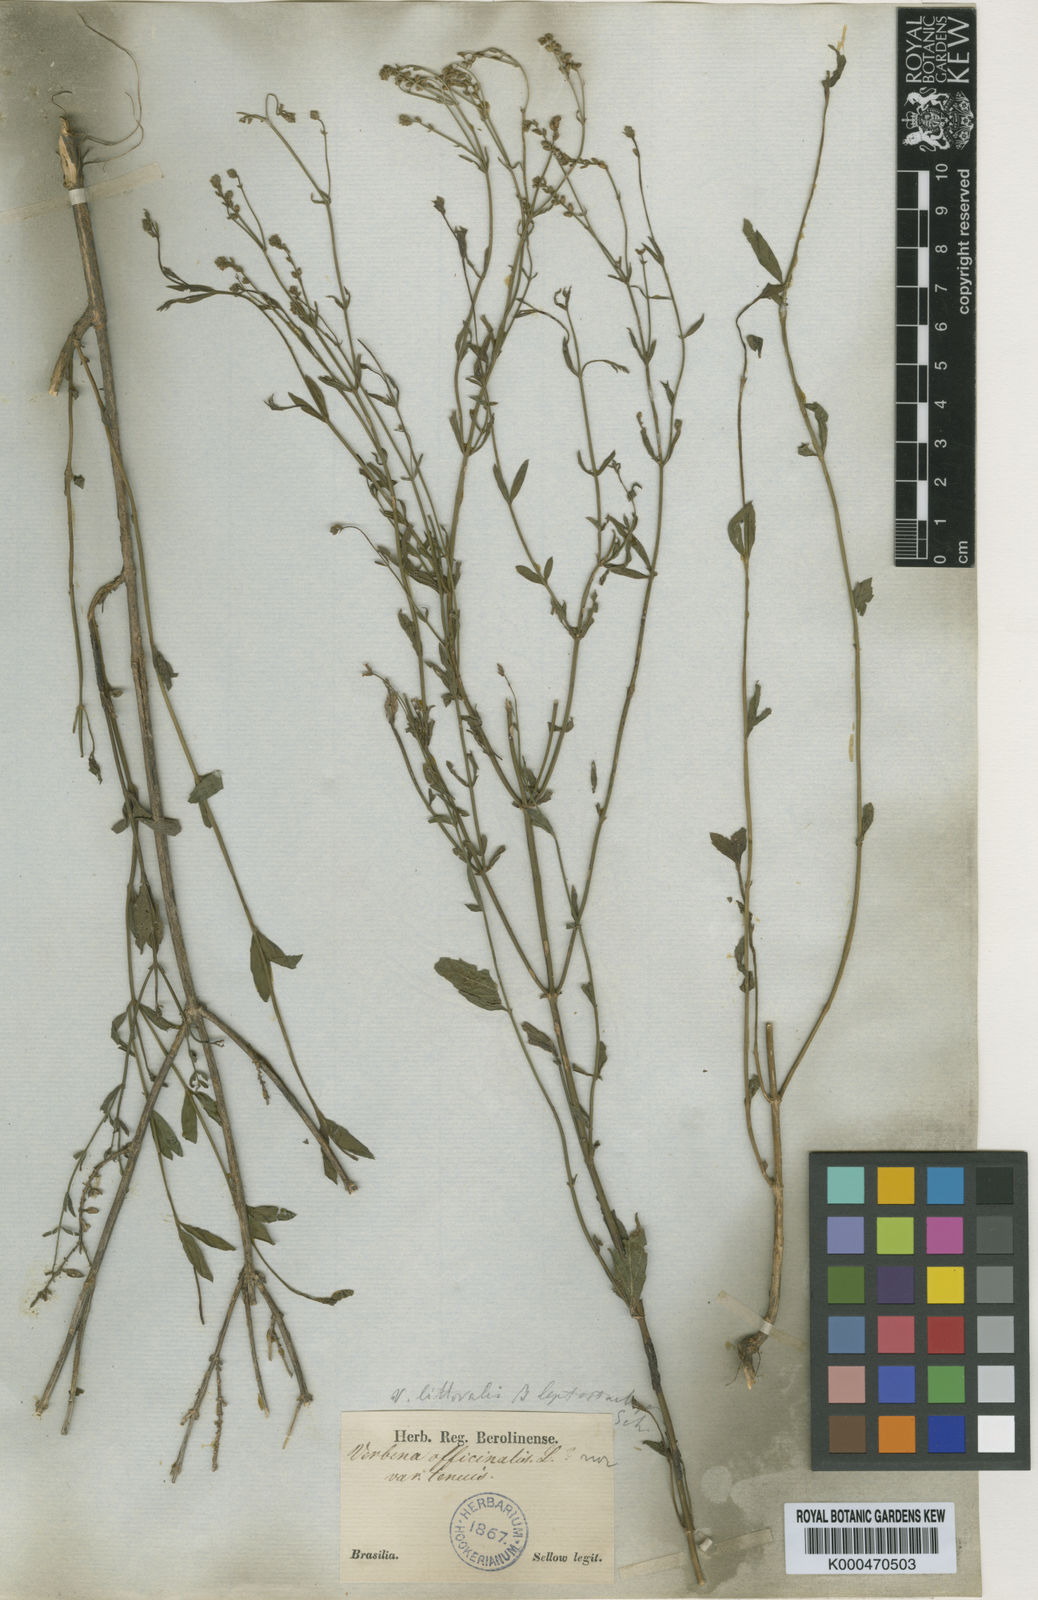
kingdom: Plantae
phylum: Tracheophyta
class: Magnoliopsida
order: Lamiales
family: Verbenaceae
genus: Verbena
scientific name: Verbena officinalis
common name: Vervain
